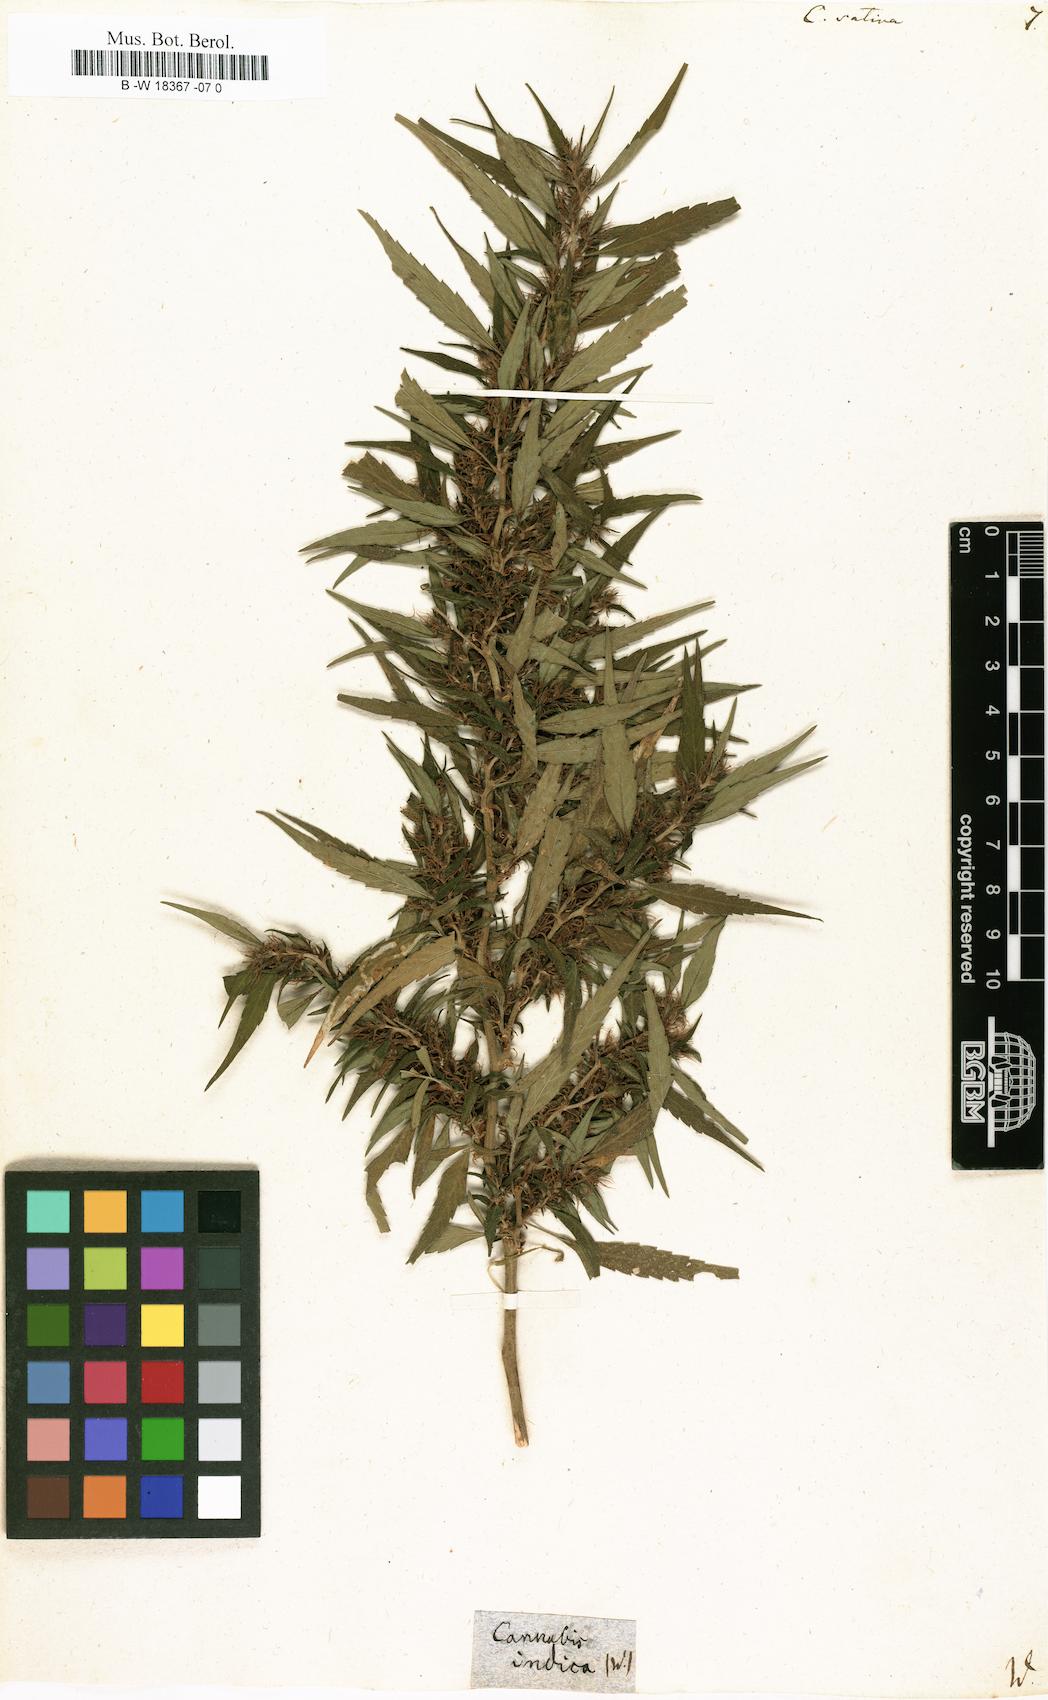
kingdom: Plantae
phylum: Tracheophyta
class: Magnoliopsida
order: Rosales
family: Cannabaceae
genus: Cannabis
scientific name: Cannabis sativa
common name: Hemp
